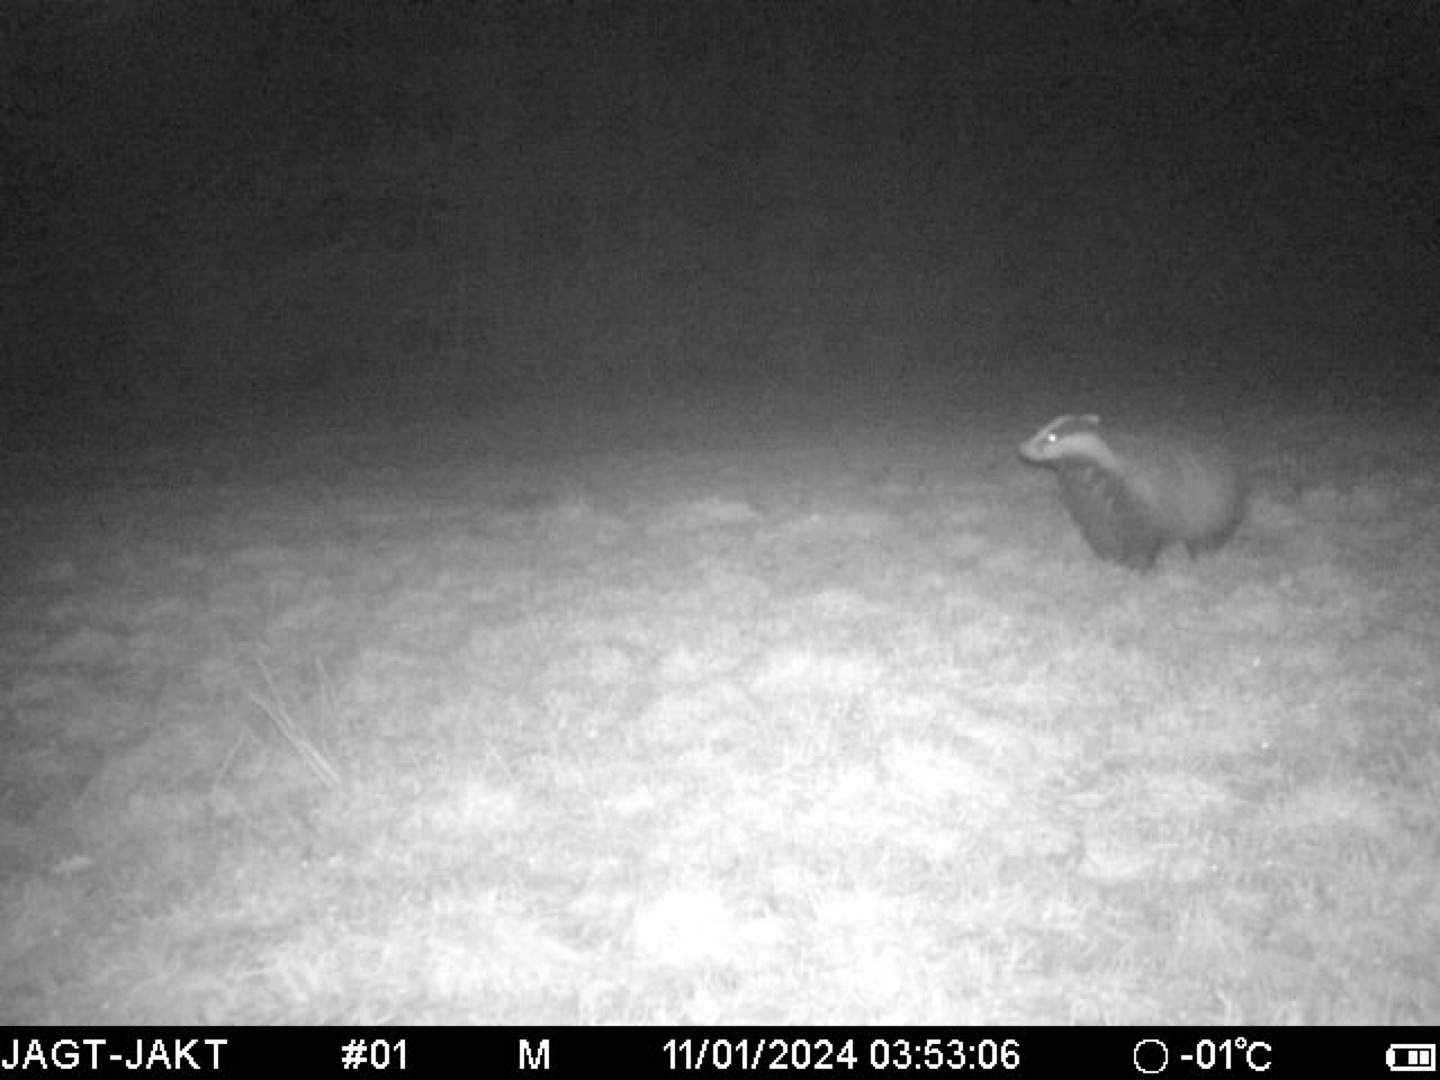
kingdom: Animalia
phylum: Chordata
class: Mammalia
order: Carnivora
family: Mustelidae
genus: Meles
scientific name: Meles meles
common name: Grævling
